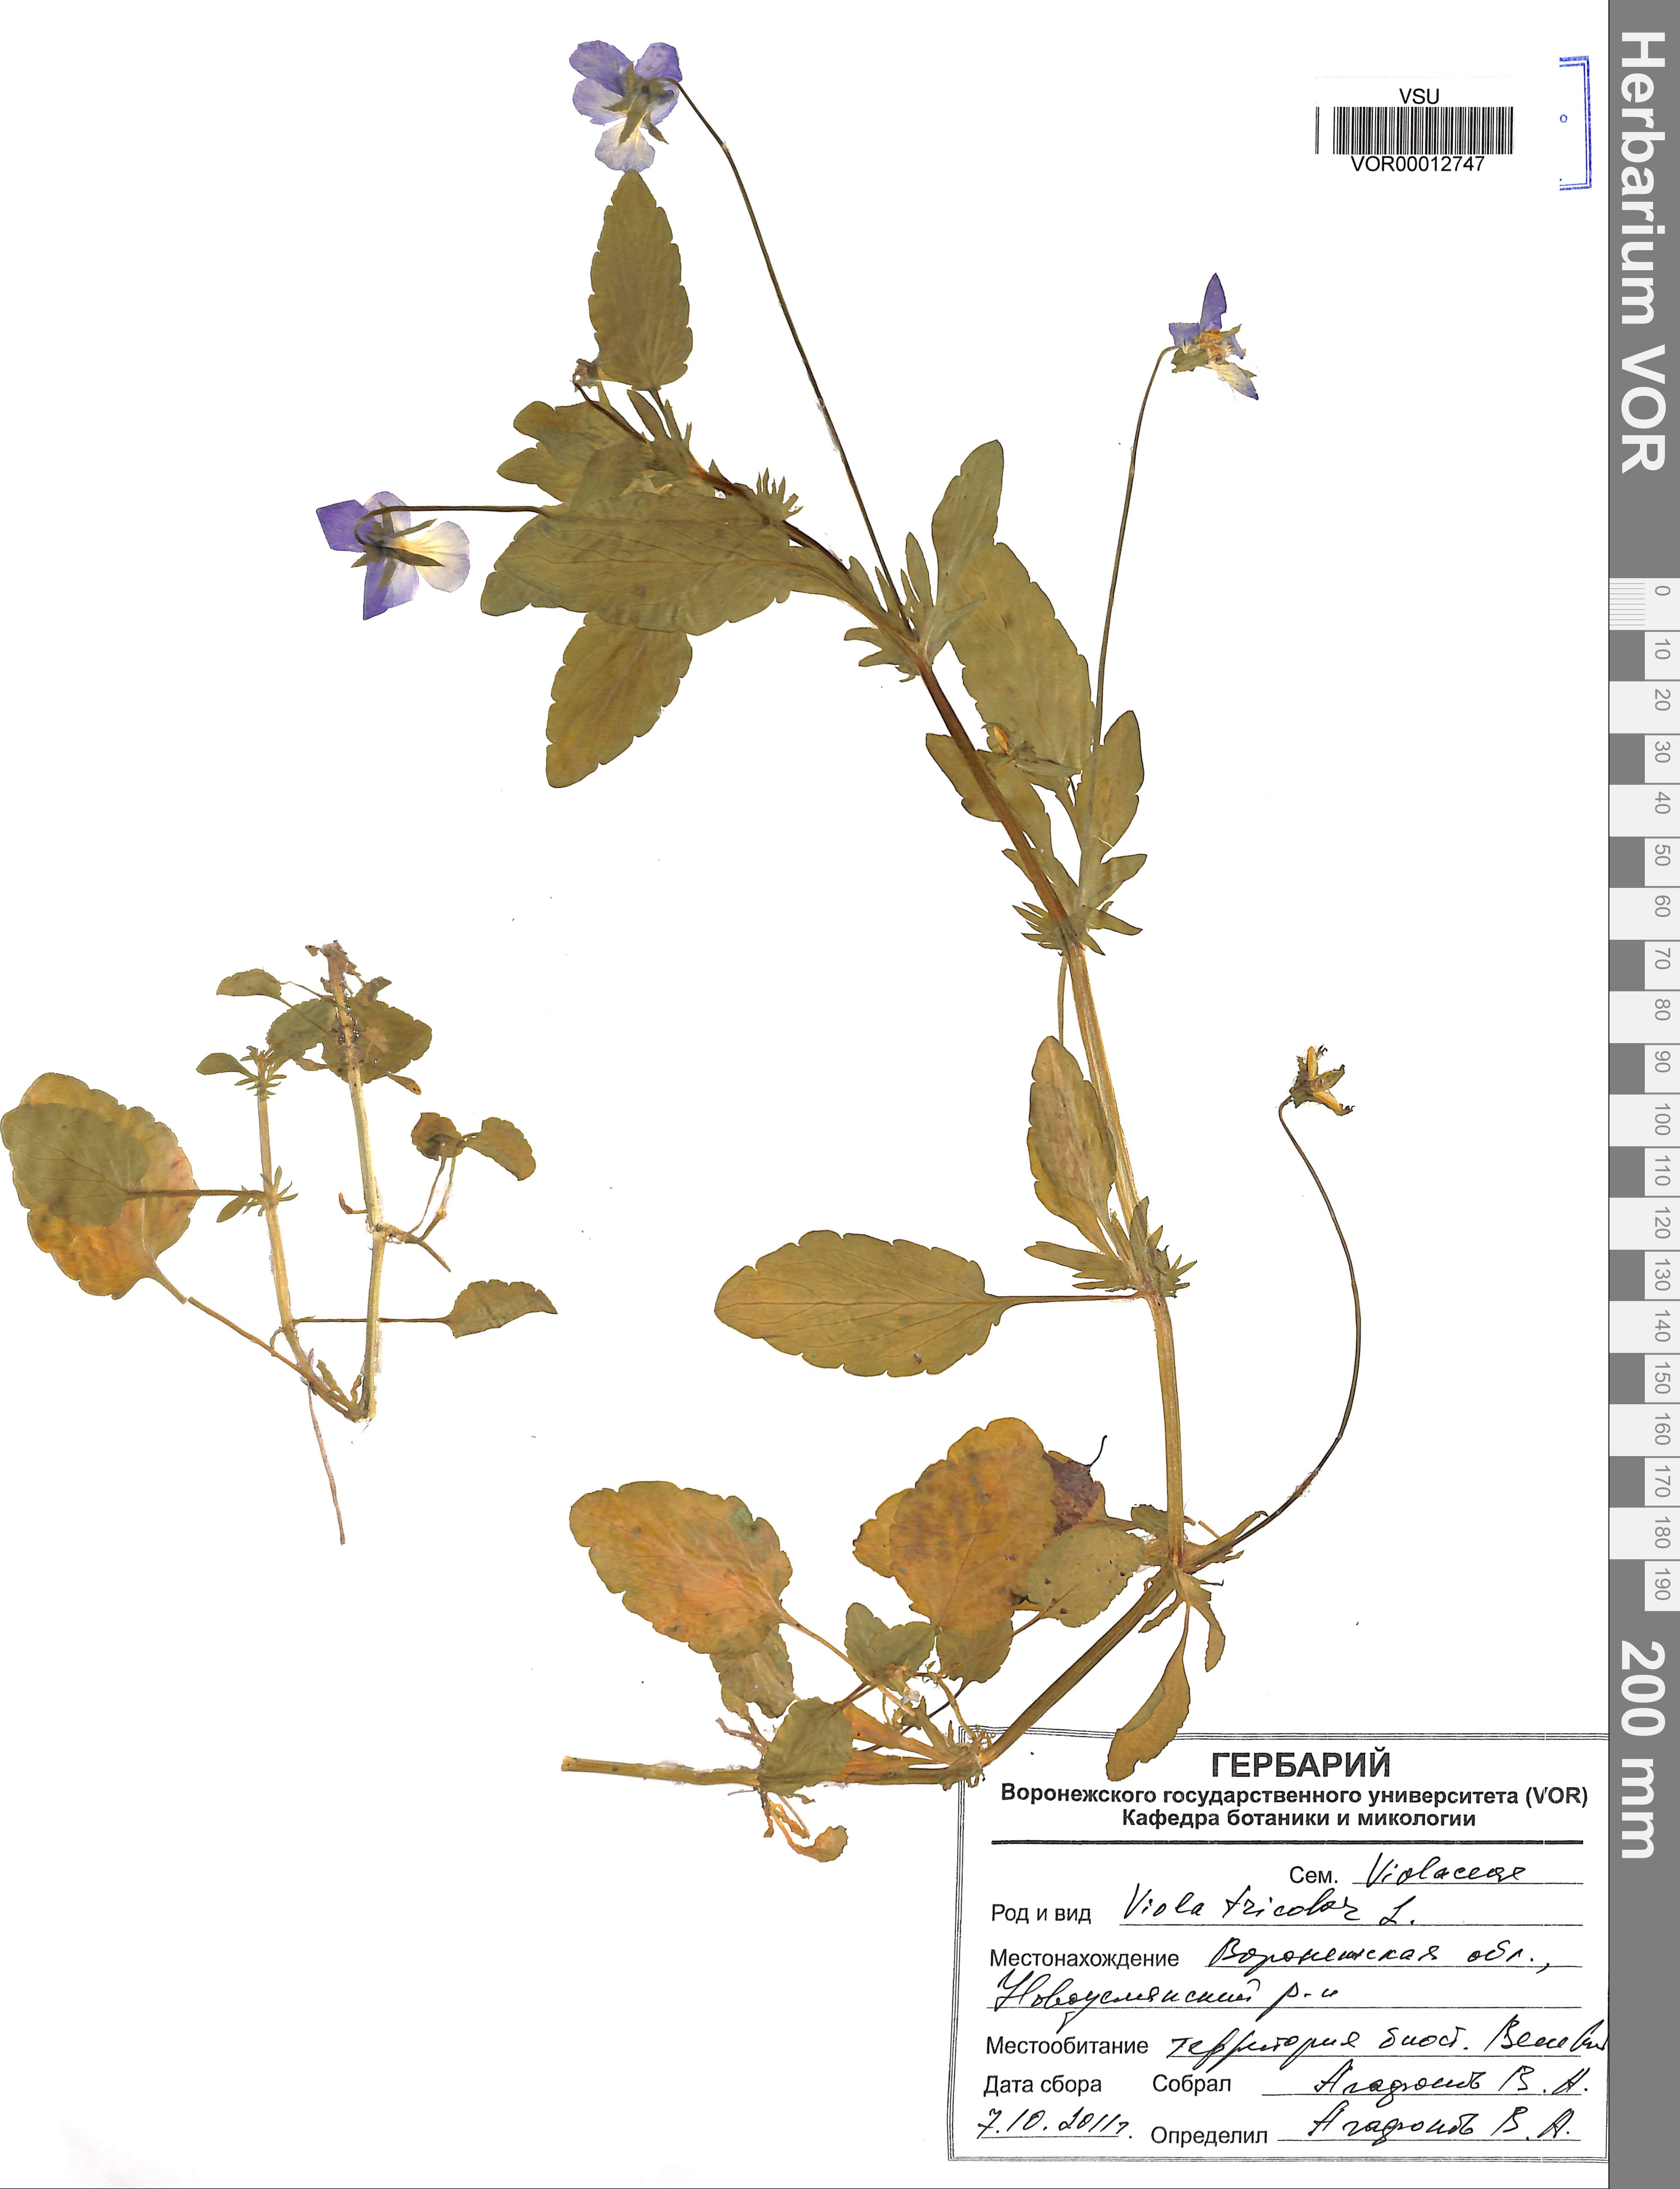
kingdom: Plantae
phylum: Tracheophyta
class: Magnoliopsida
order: Malpighiales
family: Violaceae
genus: Viola
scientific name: Viola tricolor
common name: Pansy
